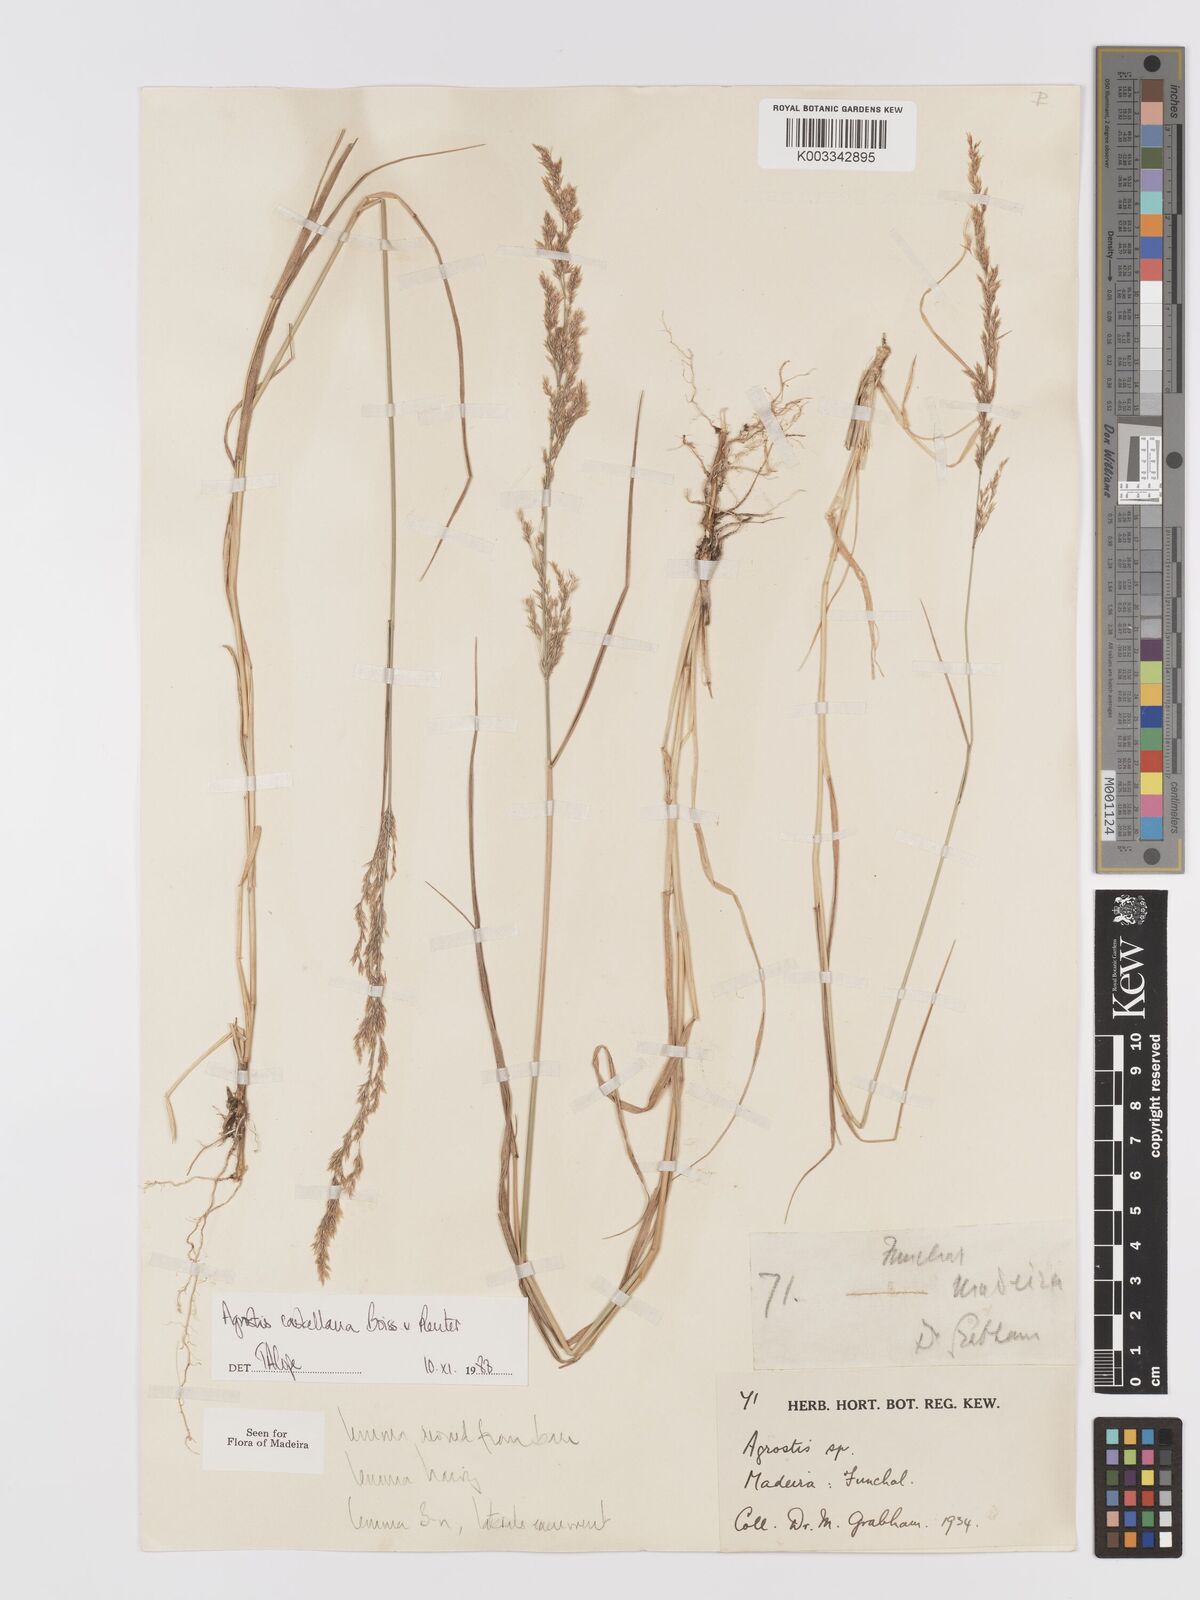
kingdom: Plantae
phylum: Tracheophyta
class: Liliopsida
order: Poales
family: Poaceae
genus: Agrostis
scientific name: Agrostis castellana
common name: Highland bent
